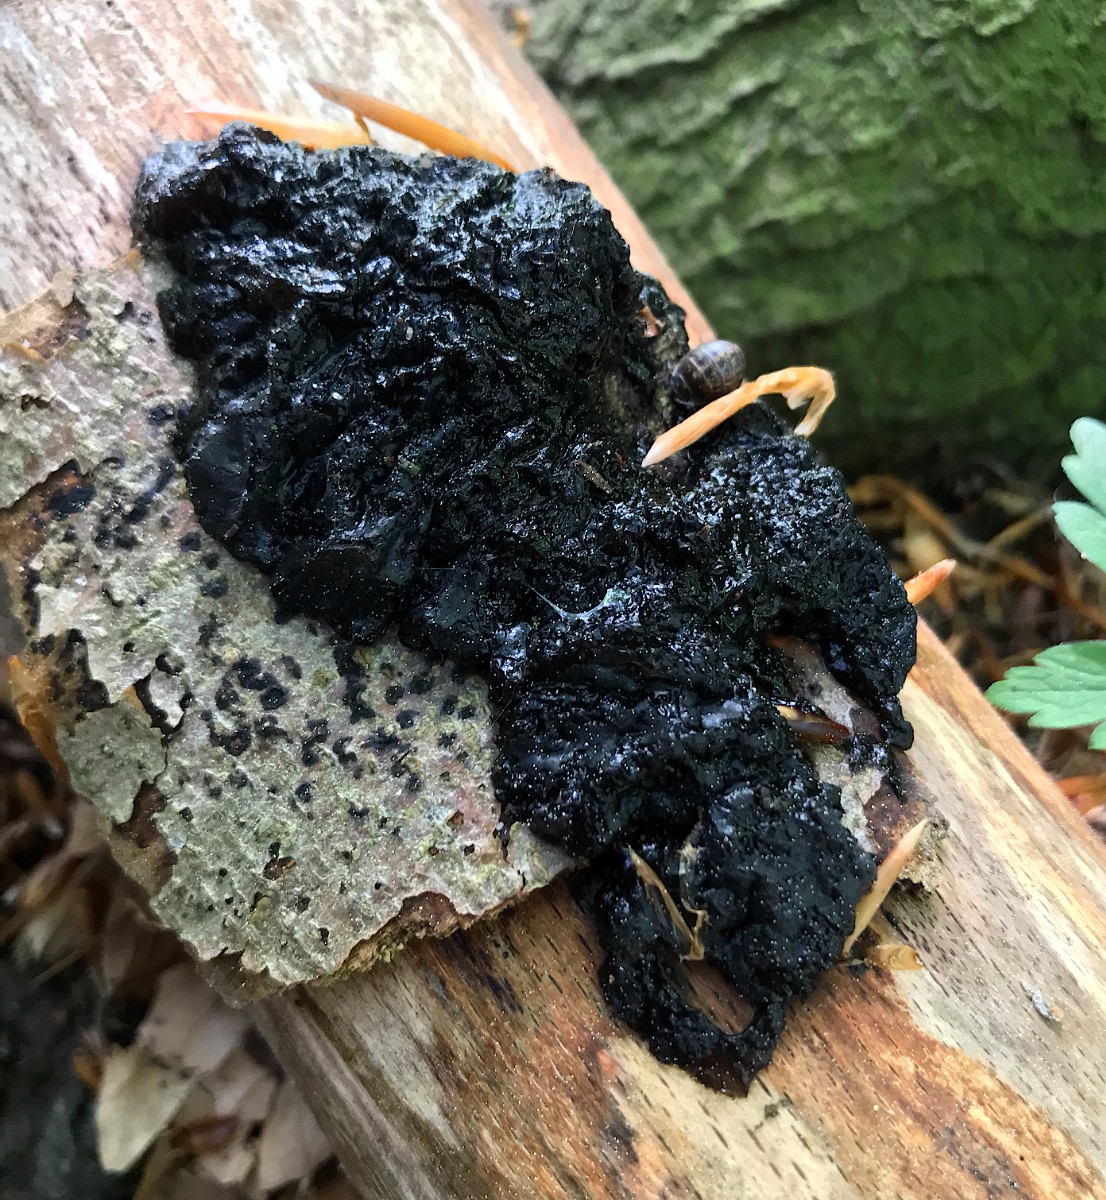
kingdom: Fungi
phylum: Basidiomycota
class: Agaricomycetes
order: Auriculariales
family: Auriculariaceae
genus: Exidia
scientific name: Exidia nigricans
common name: almindelig bævretop
